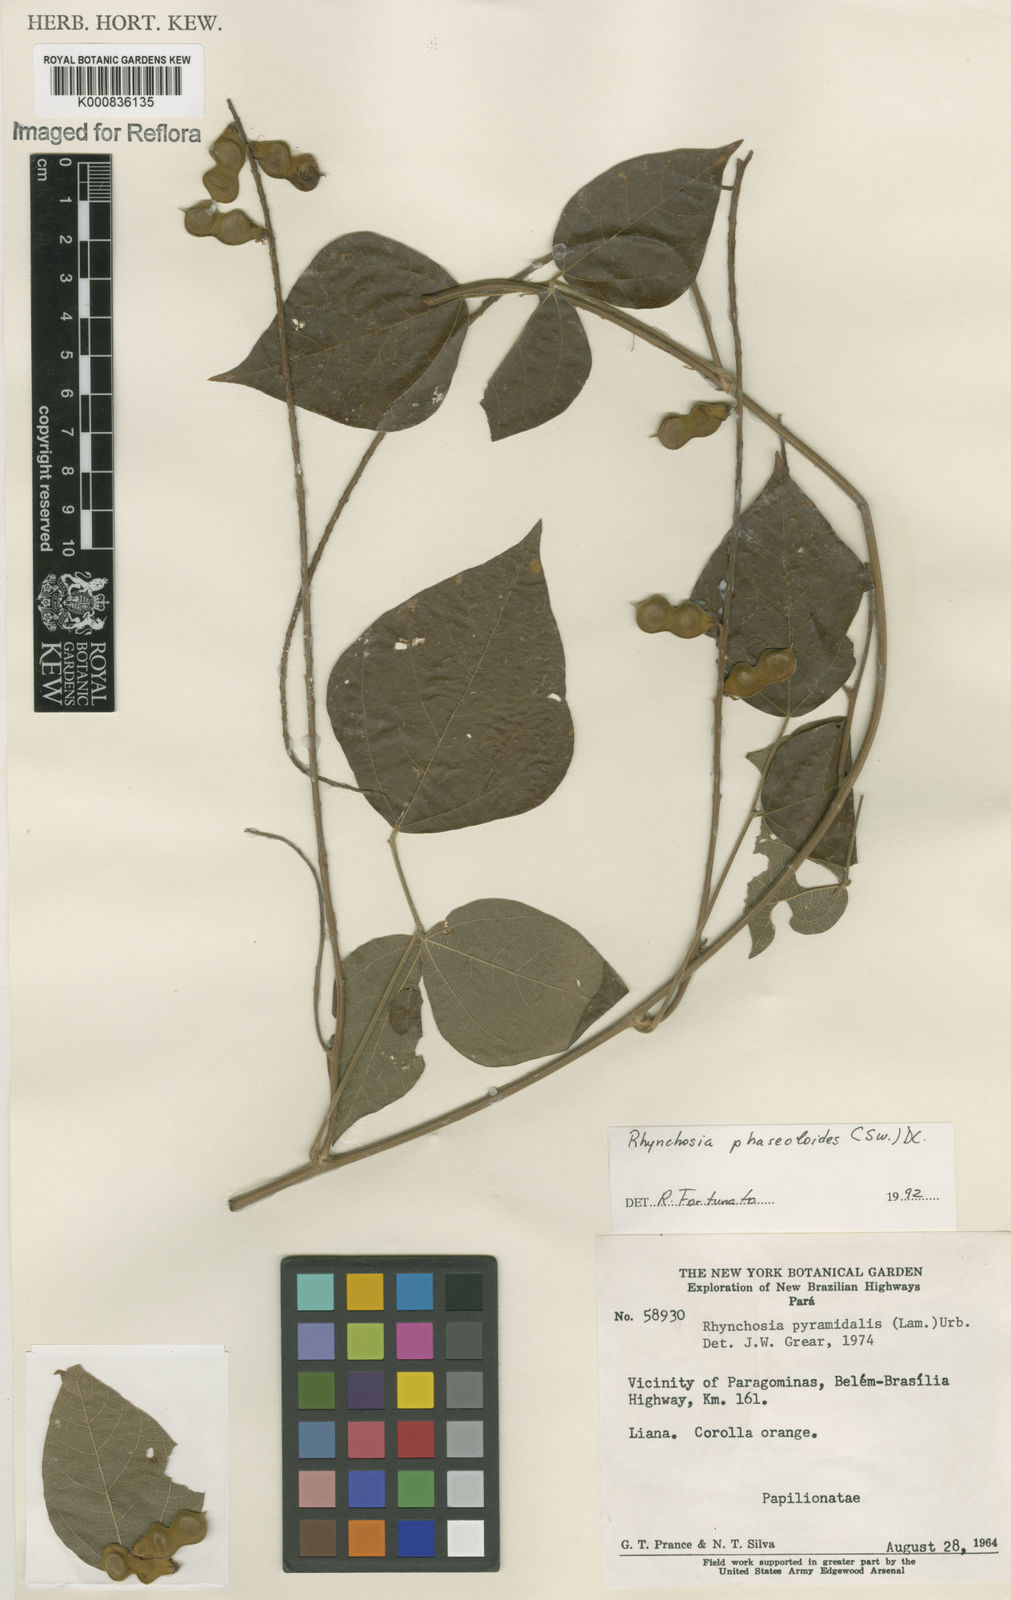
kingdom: Plantae
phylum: Tracheophyta
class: Magnoliopsida
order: Fabales
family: Fabaceae
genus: Rhynchosia
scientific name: Rhynchosia phaseoloides
